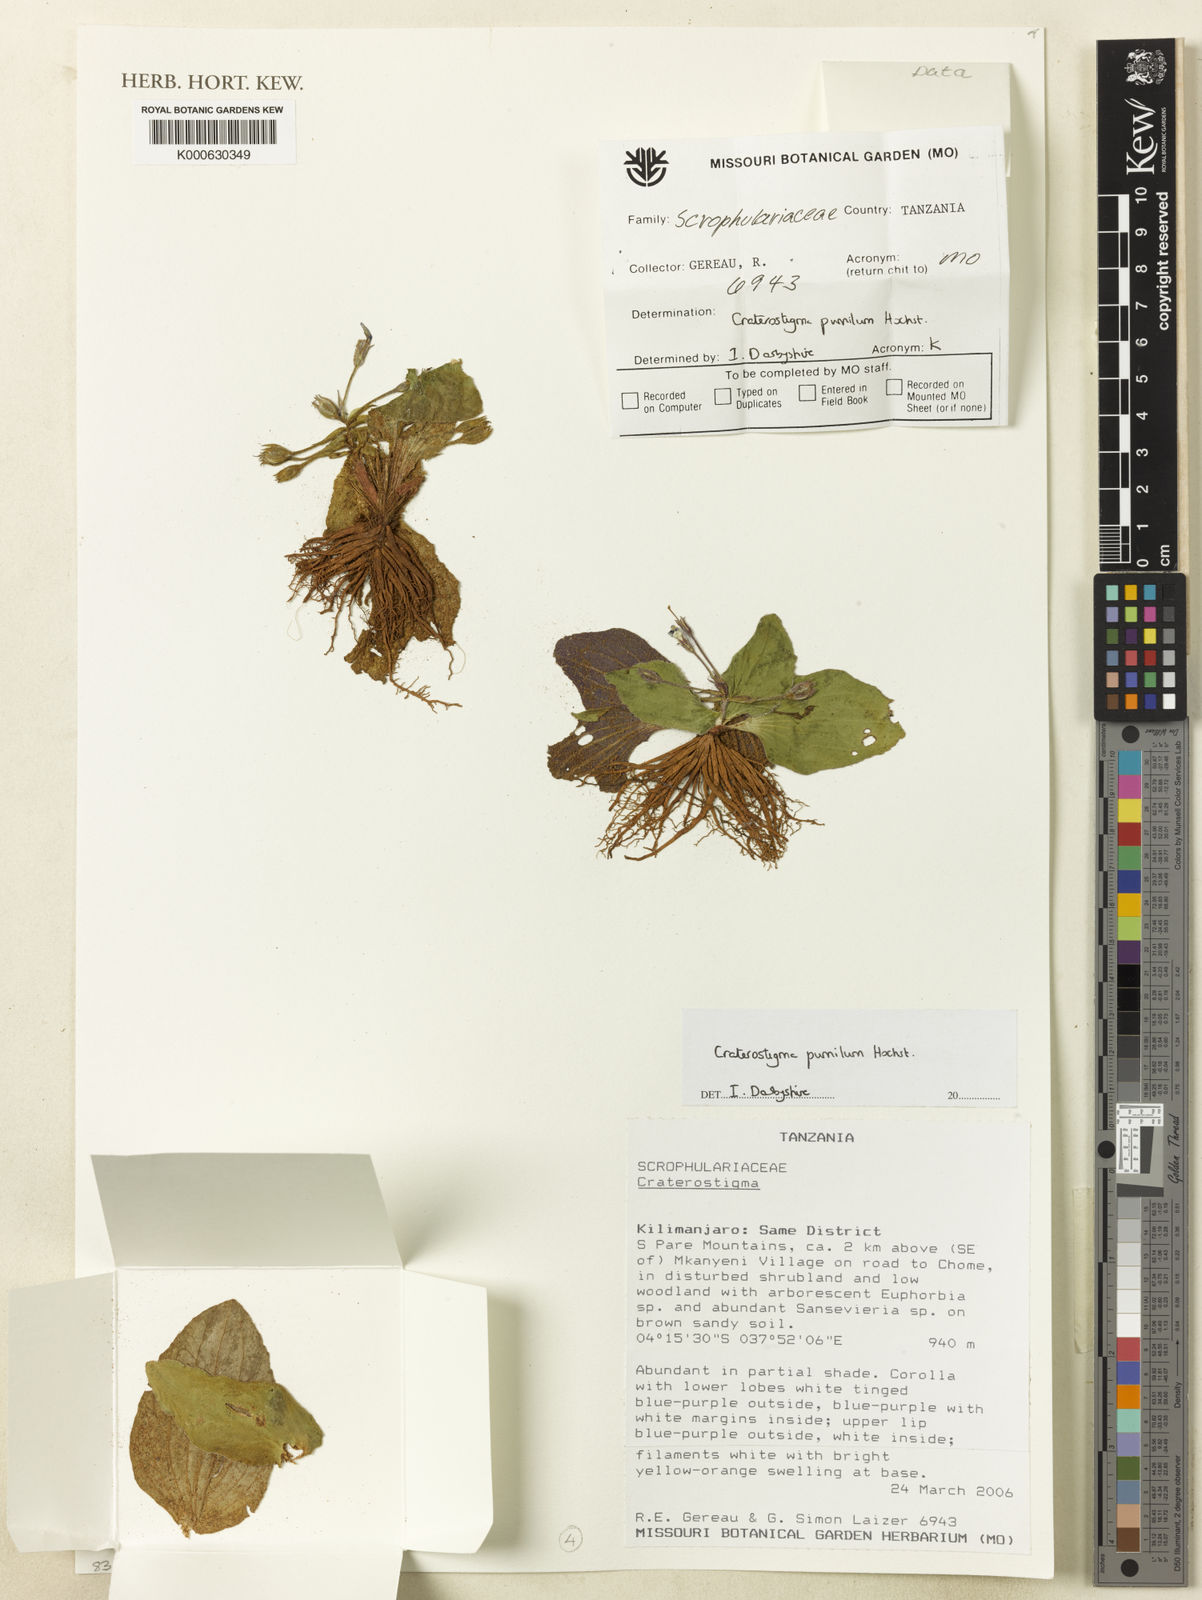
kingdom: Plantae
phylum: Tracheophyta
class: Magnoliopsida
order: Lamiales
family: Linderniaceae
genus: Craterostigma
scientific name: Craterostigma pumilum
